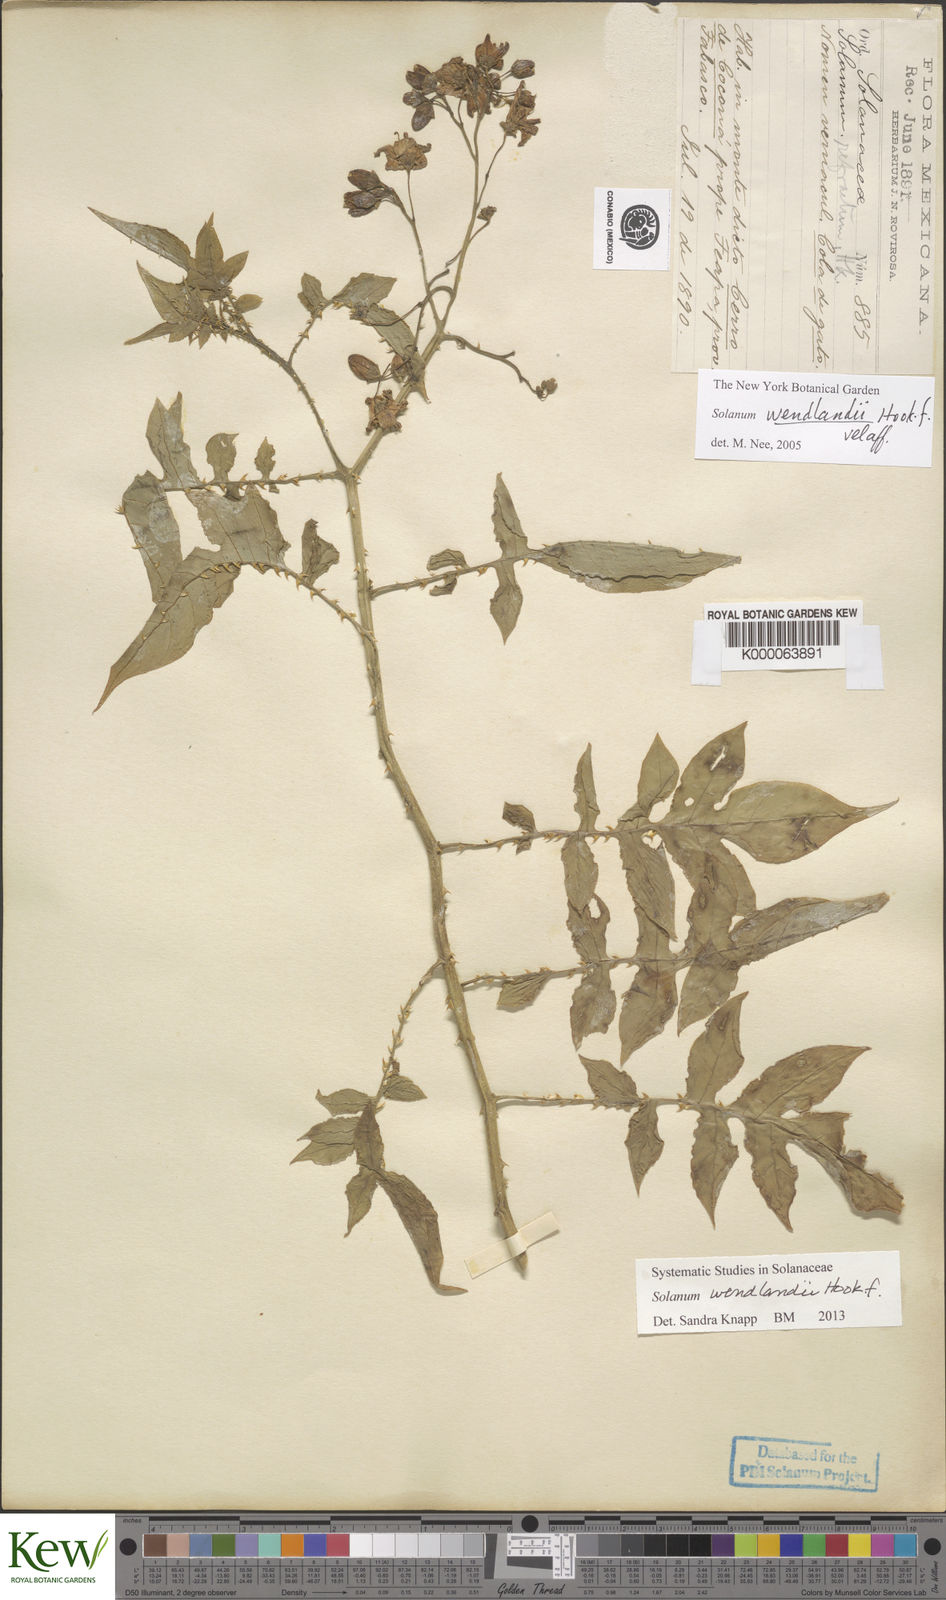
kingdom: Plantae
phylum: Tracheophyta
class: Magnoliopsida
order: Solanales
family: Solanaceae
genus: Solanum
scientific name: Solanum wendlandii
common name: Costa rican nightshade
